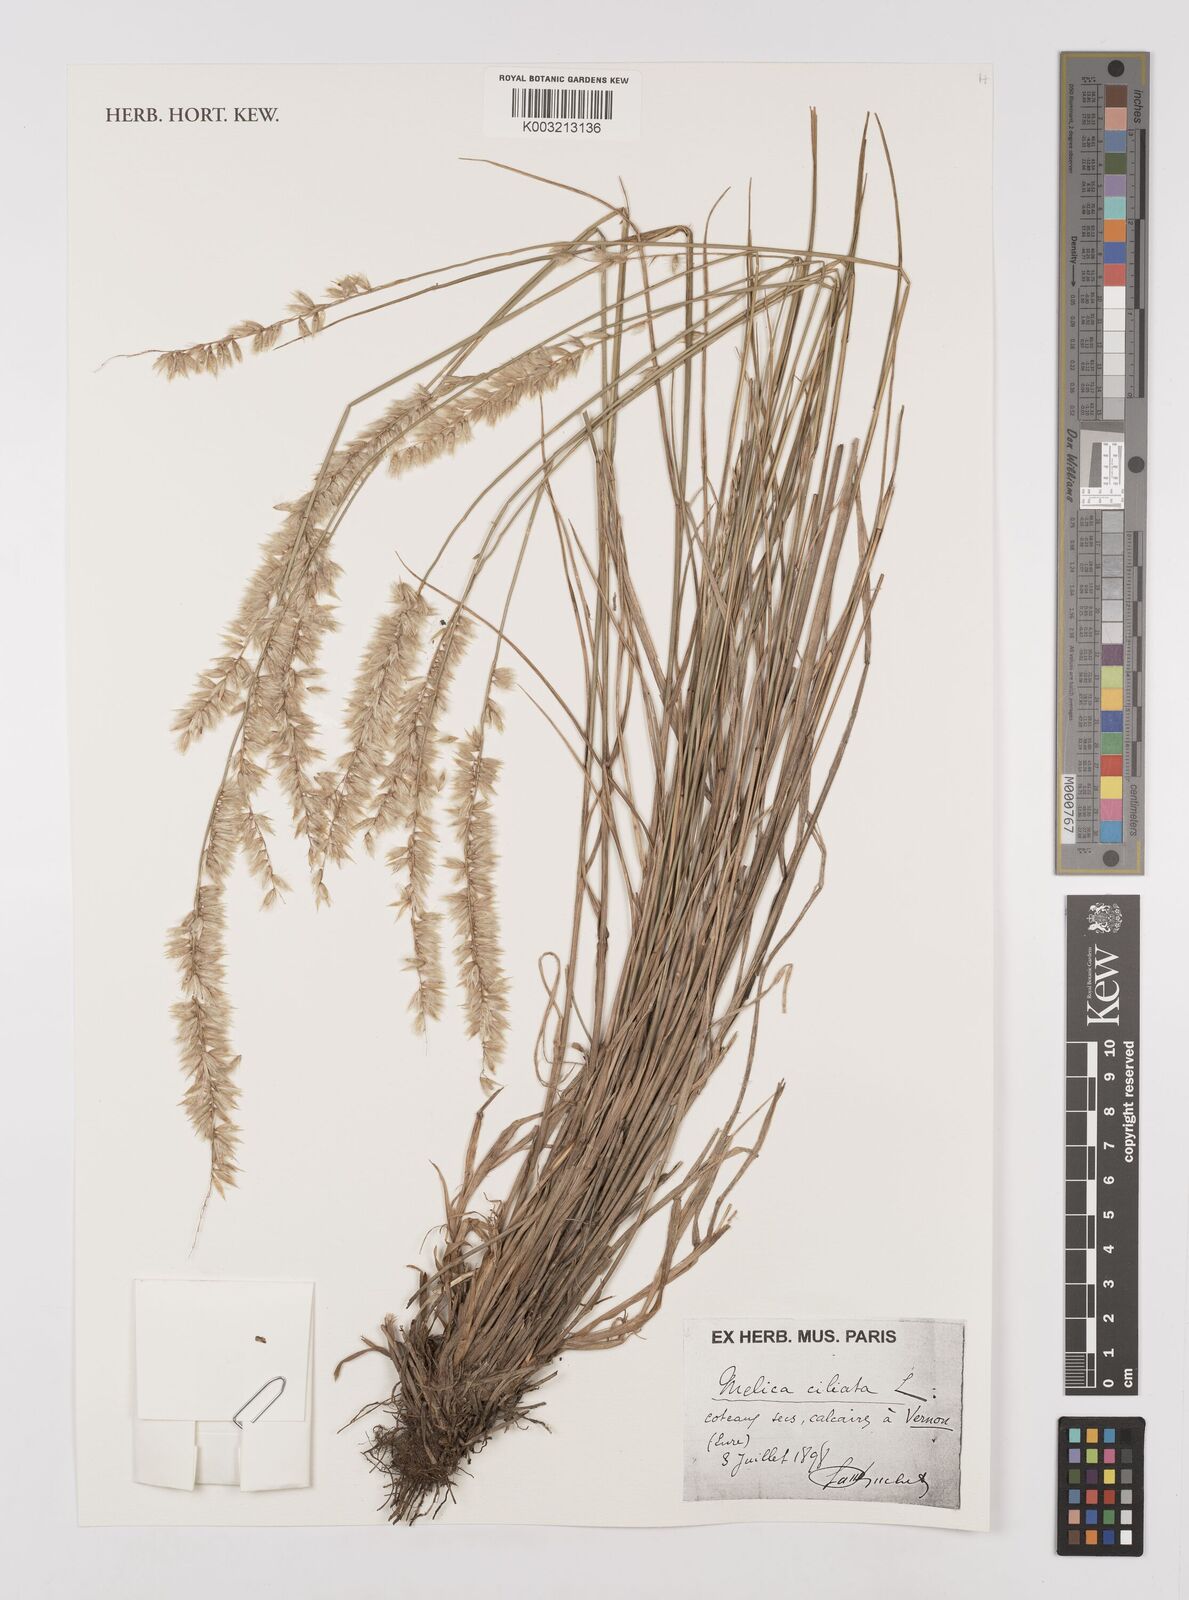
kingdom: Plantae
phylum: Tracheophyta
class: Liliopsida
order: Poales
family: Poaceae
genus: Melica
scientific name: Melica ciliata
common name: Hairy melicgrass
